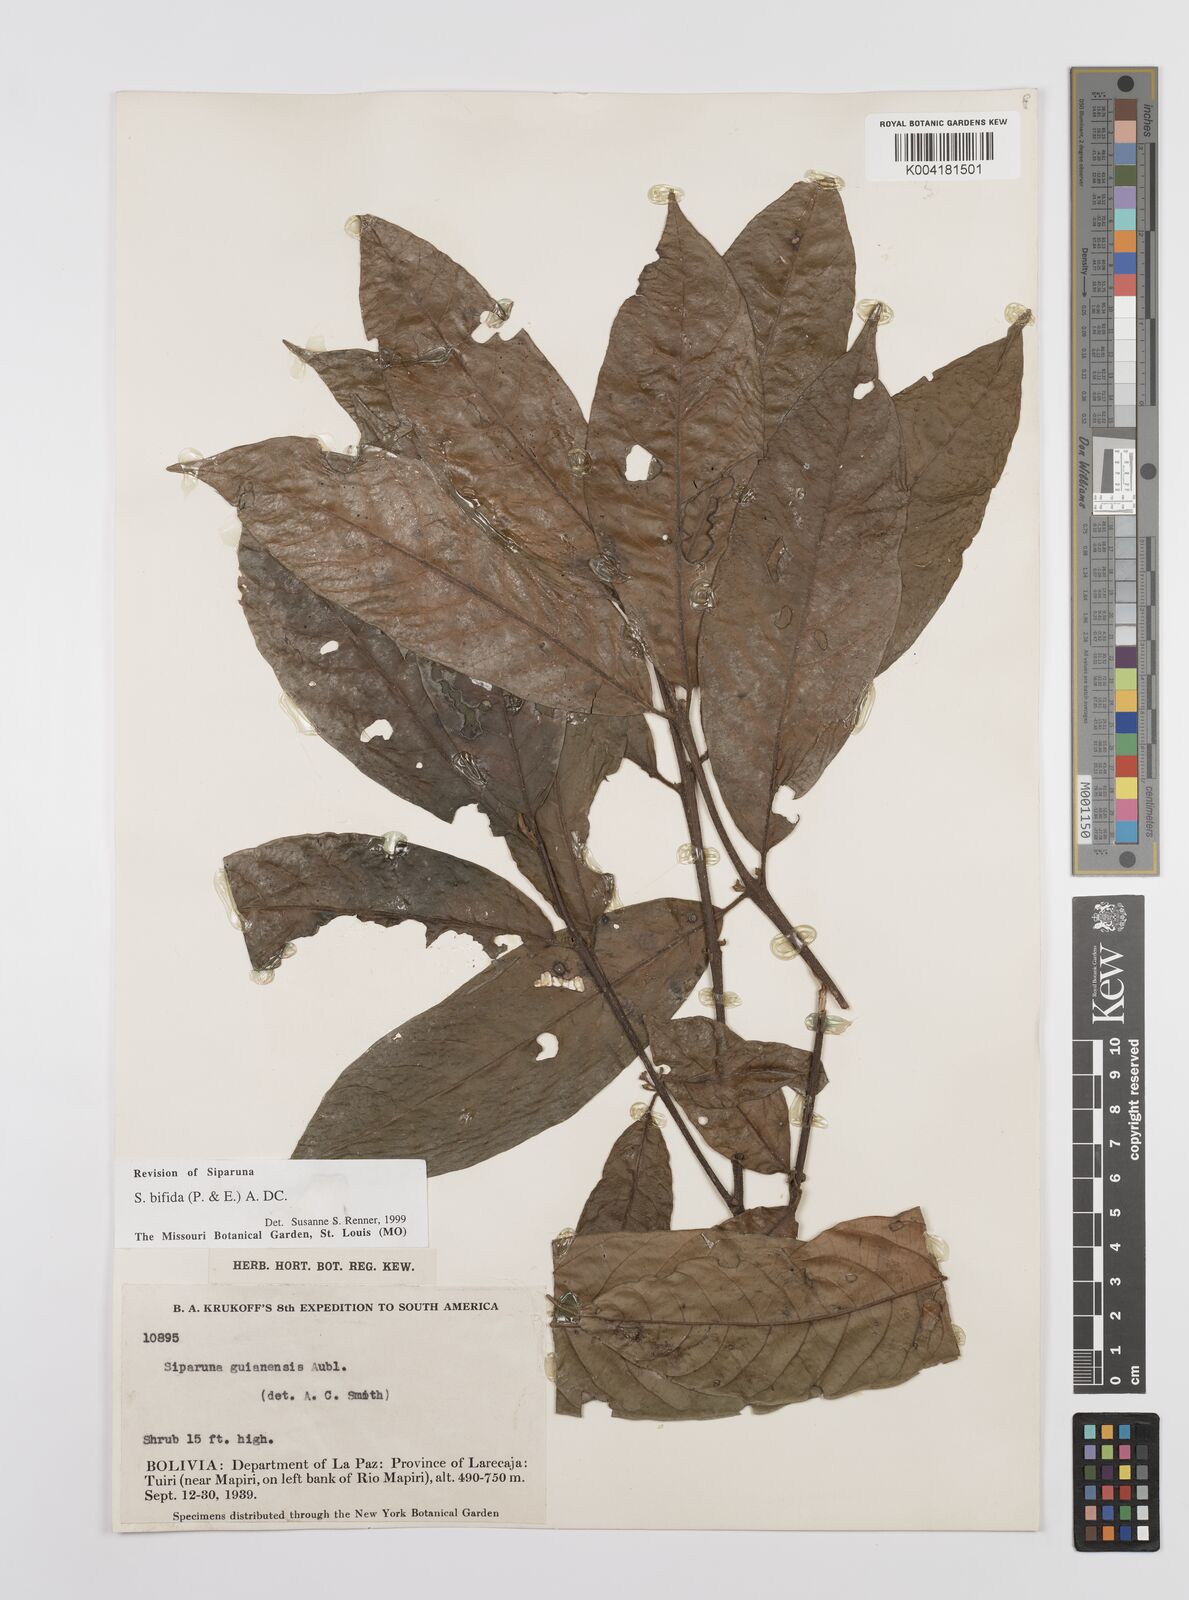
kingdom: Plantae
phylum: Tracheophyta
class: Magnoliopsida
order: Laurales
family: Siparunaceae
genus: Siparuna
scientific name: Siparuna bifida
